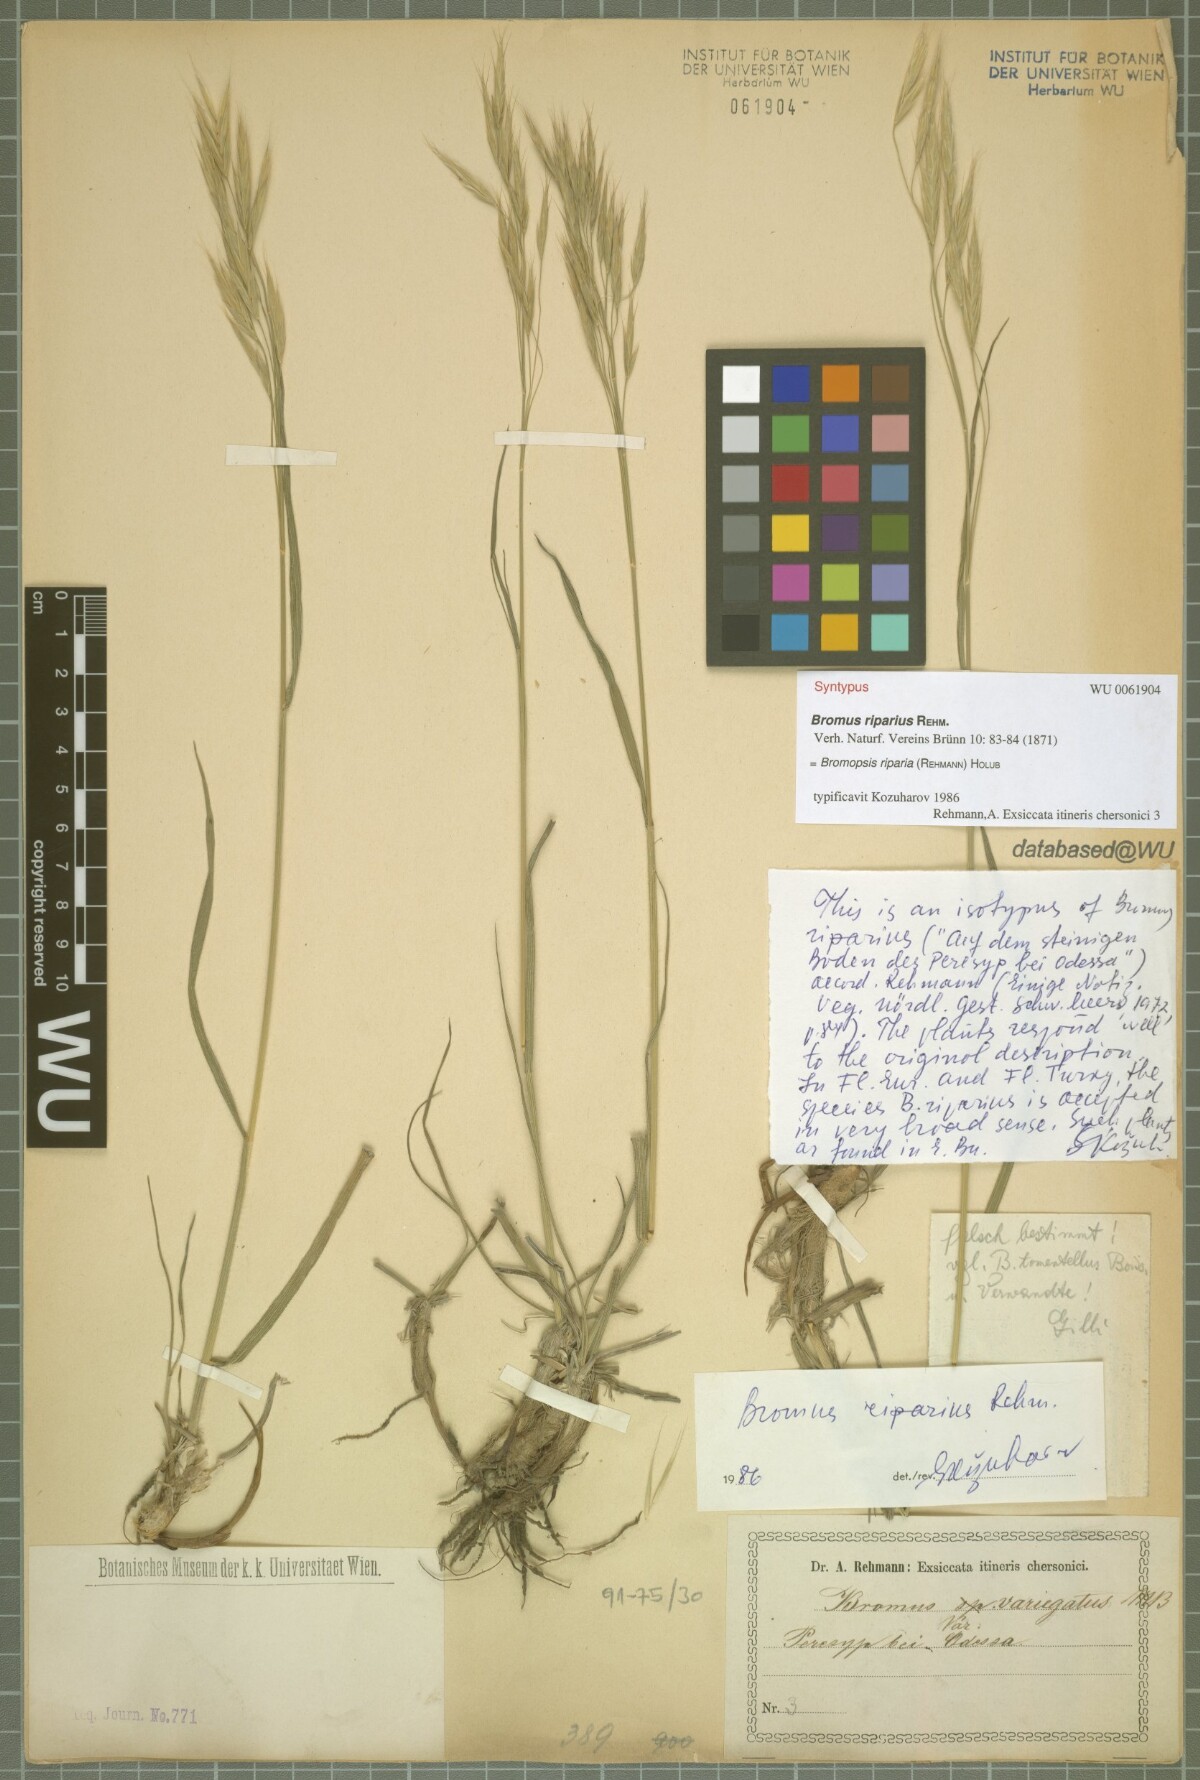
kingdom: Plantae
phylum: Tracheophyta
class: Liliopsida
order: Poales
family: Poaceae
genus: Bromus
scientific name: Bromus riparius
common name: Meadow brome
